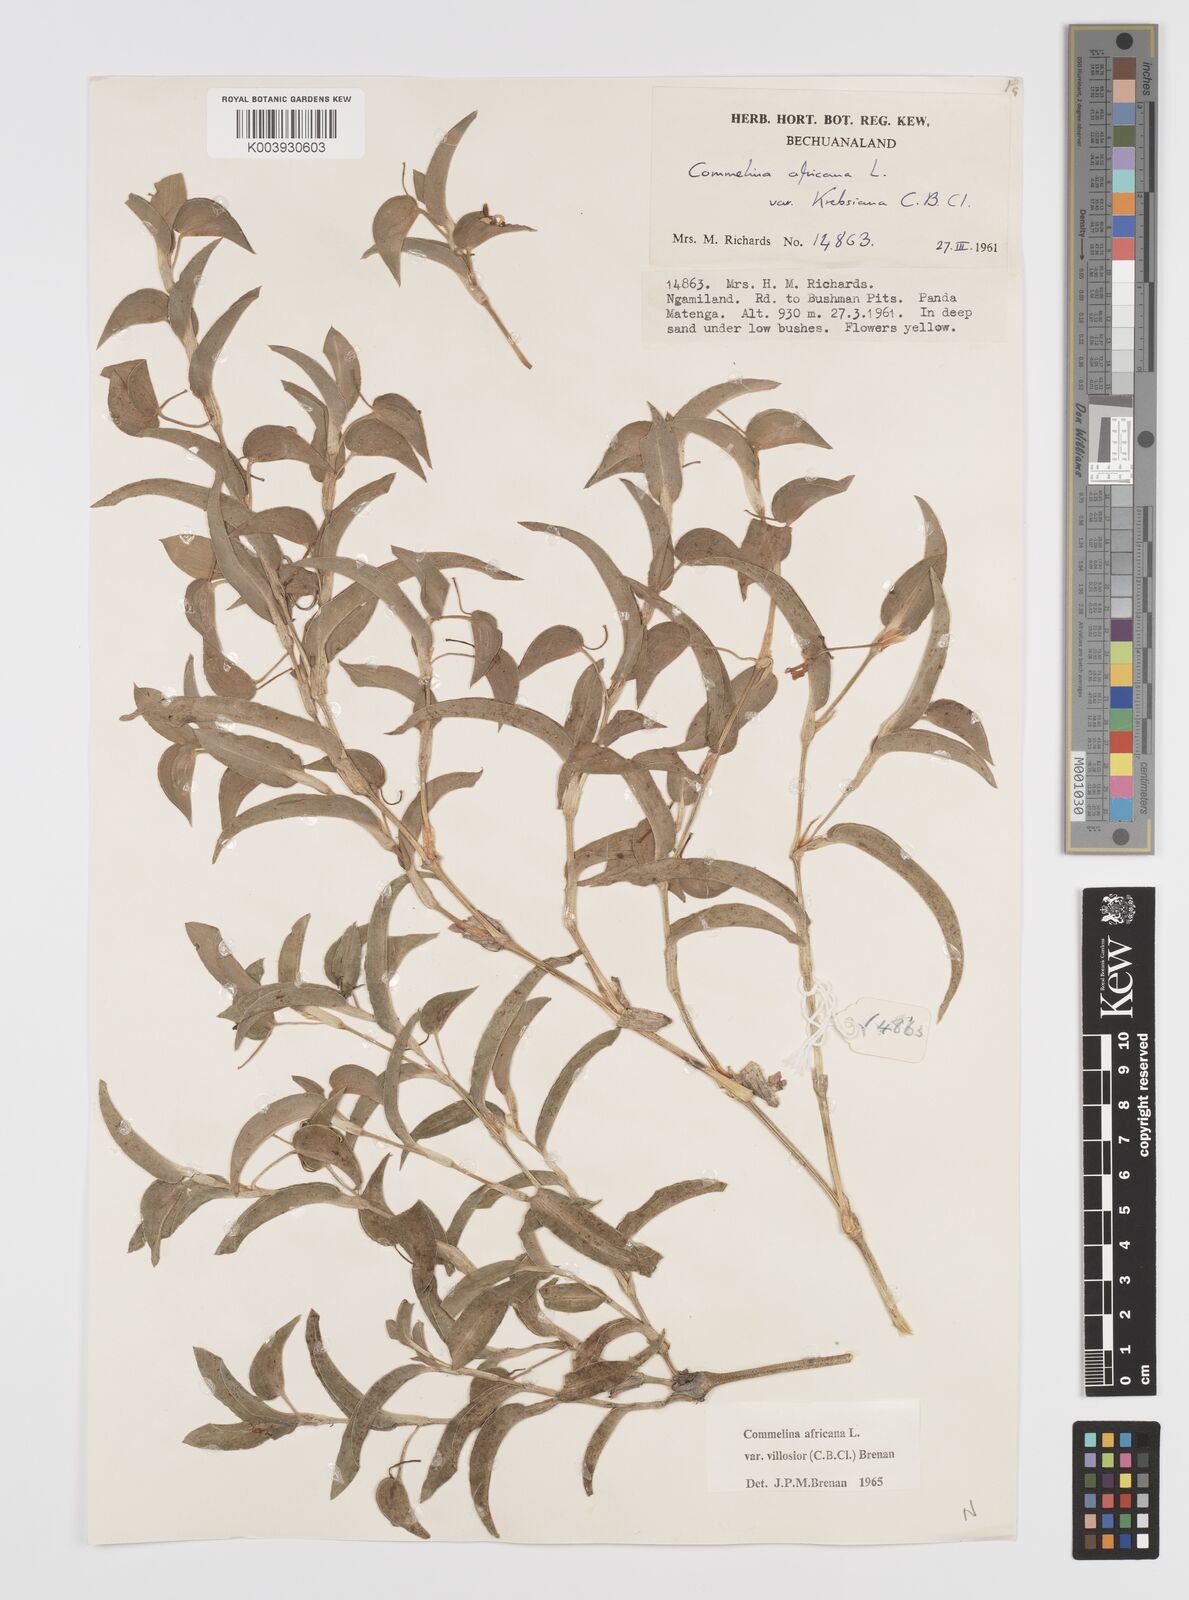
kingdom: Plantae
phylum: Tracheophyta
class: Liliopsida
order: Commelinales
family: Commelinaceae
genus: Commelina
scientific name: Commelina africana
